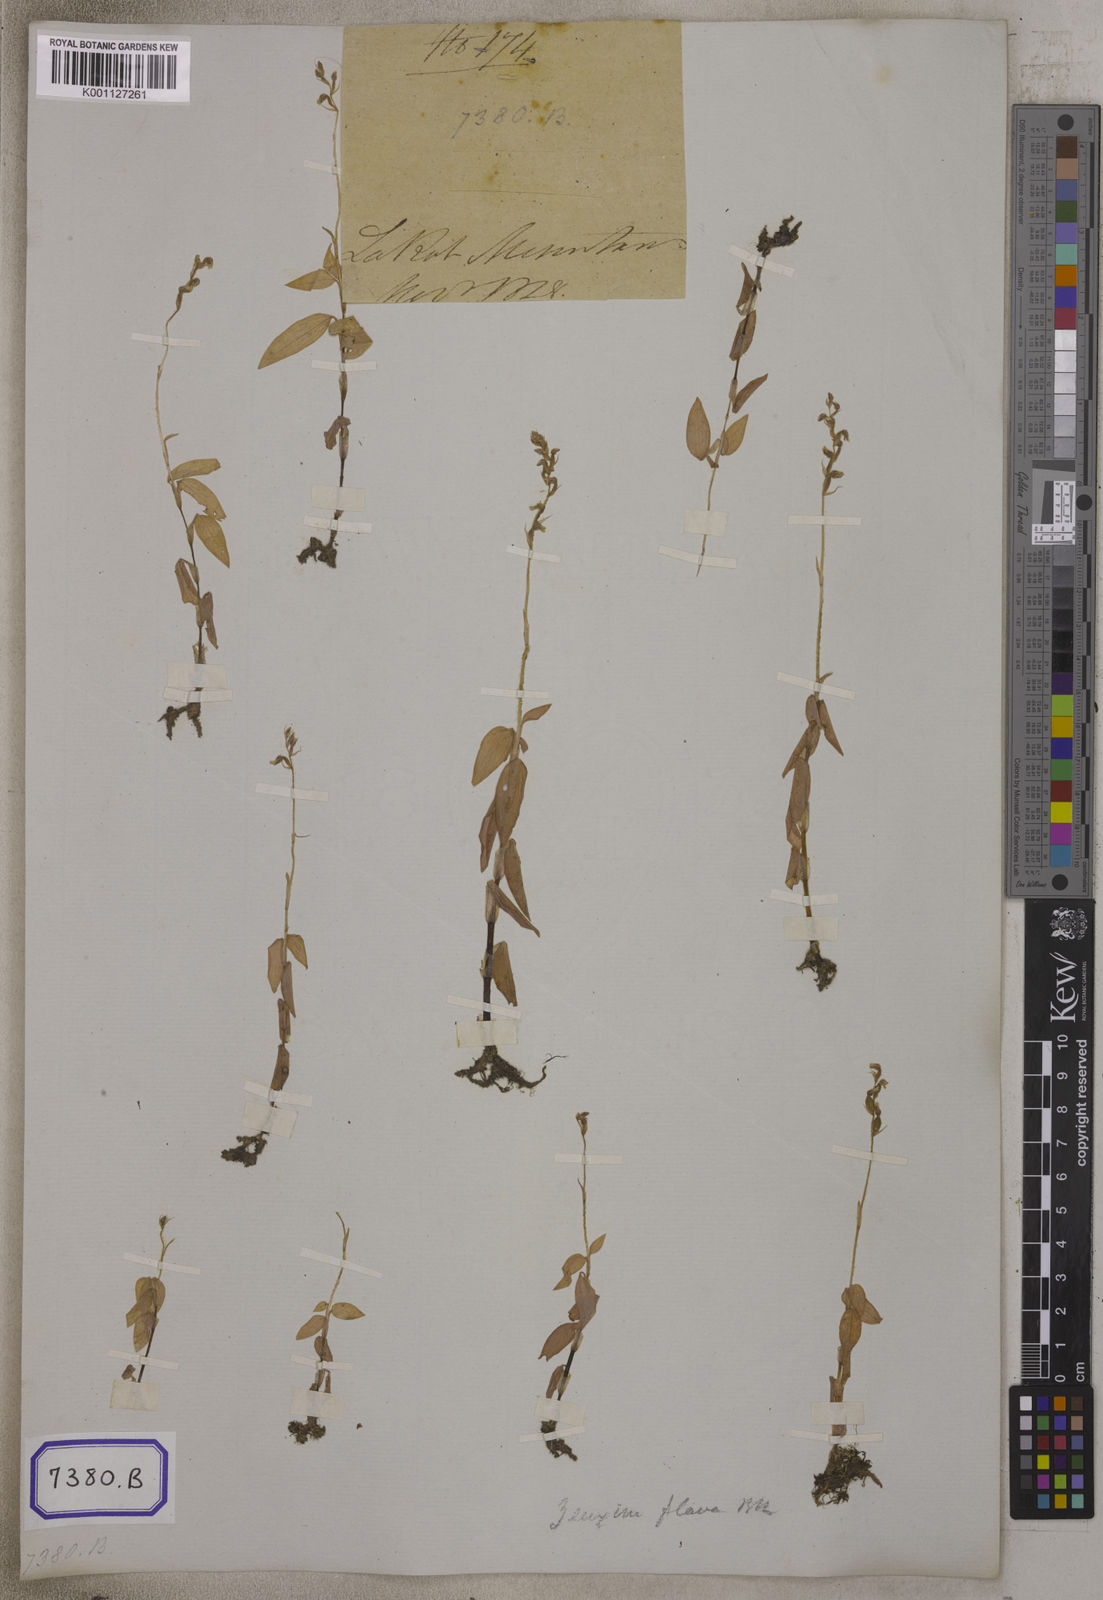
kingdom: Plantae
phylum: Tracheophyta
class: Liliopsida
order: Asparagales
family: Orchidaceae
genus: Hetaeria
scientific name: Hetaeria
